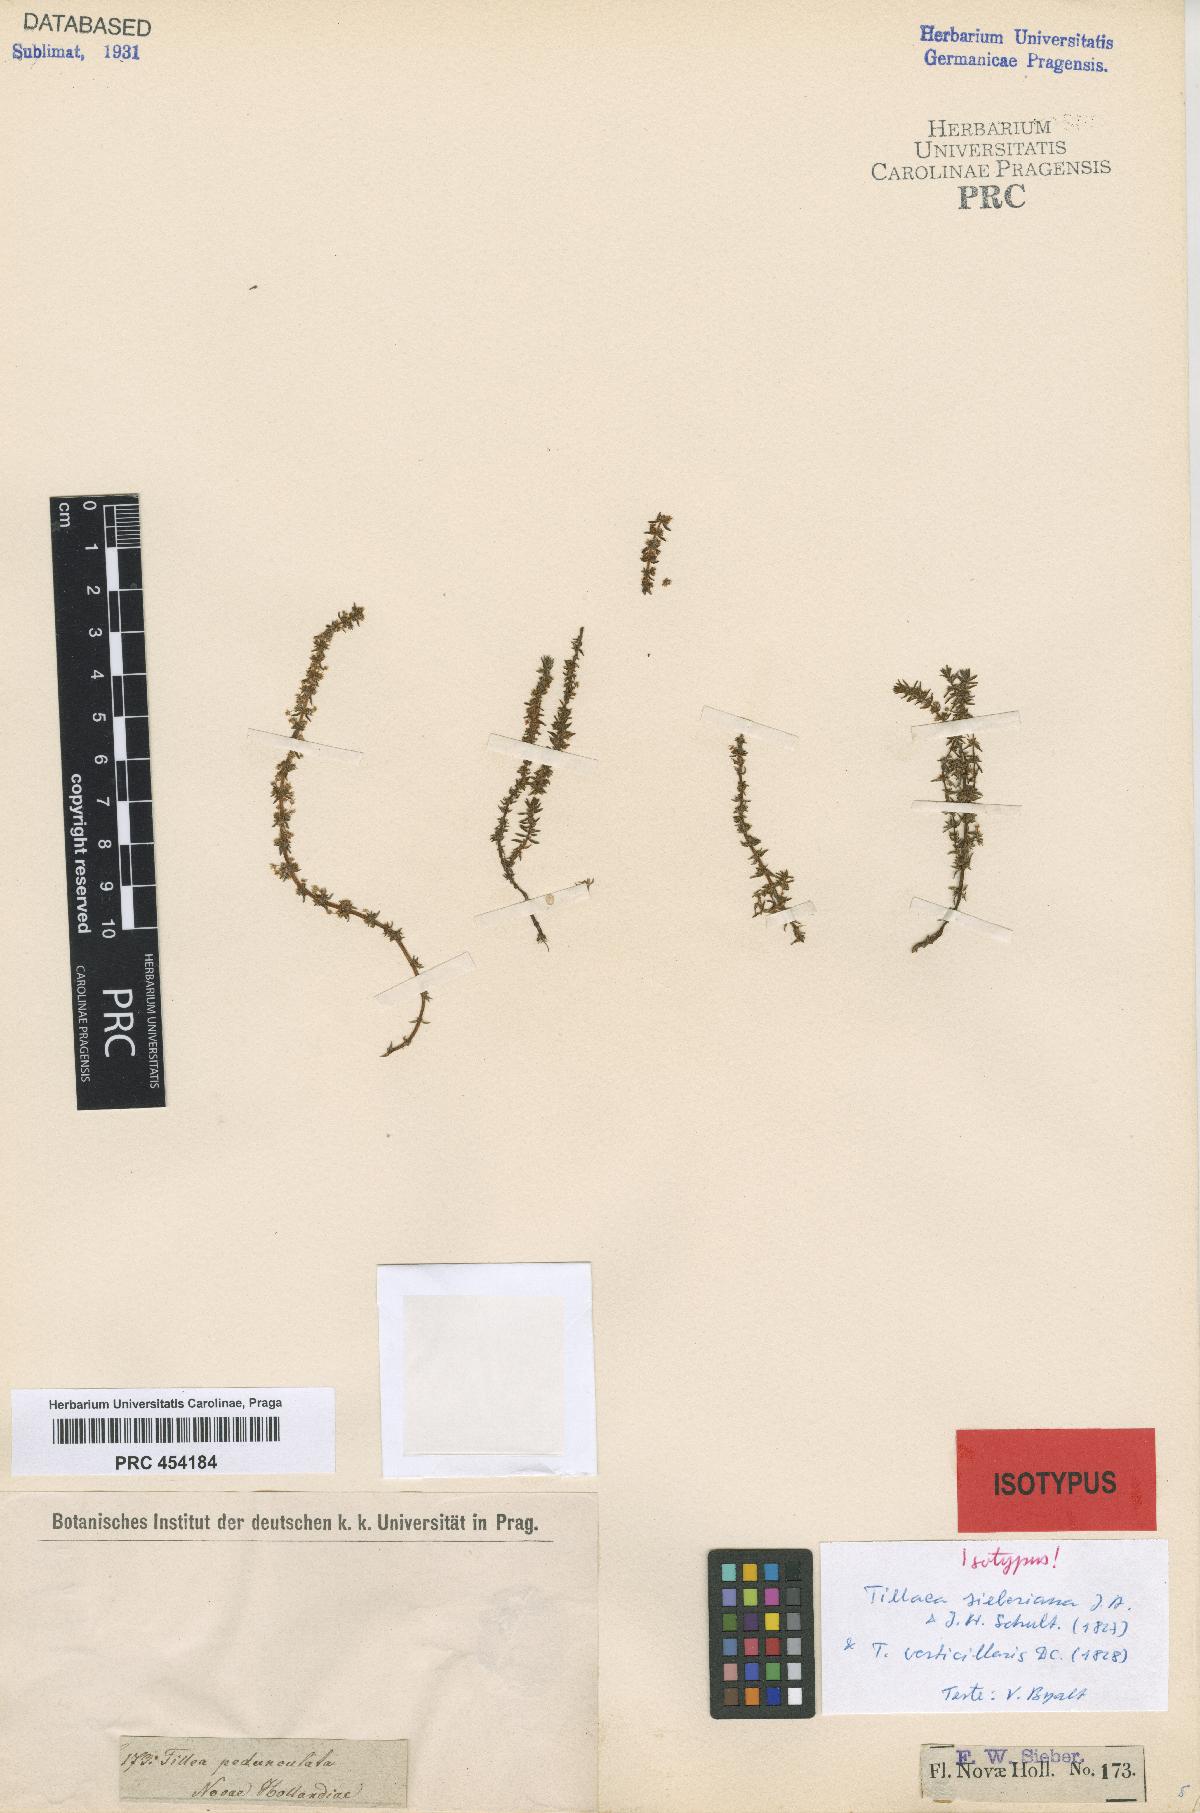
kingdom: Plantae
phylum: Tracheophyta
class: Magnoliopsida
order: Saxifragales
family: Crassulaceae
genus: Crassula
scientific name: Crassula sieberiana
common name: Siberian pygmyweed
